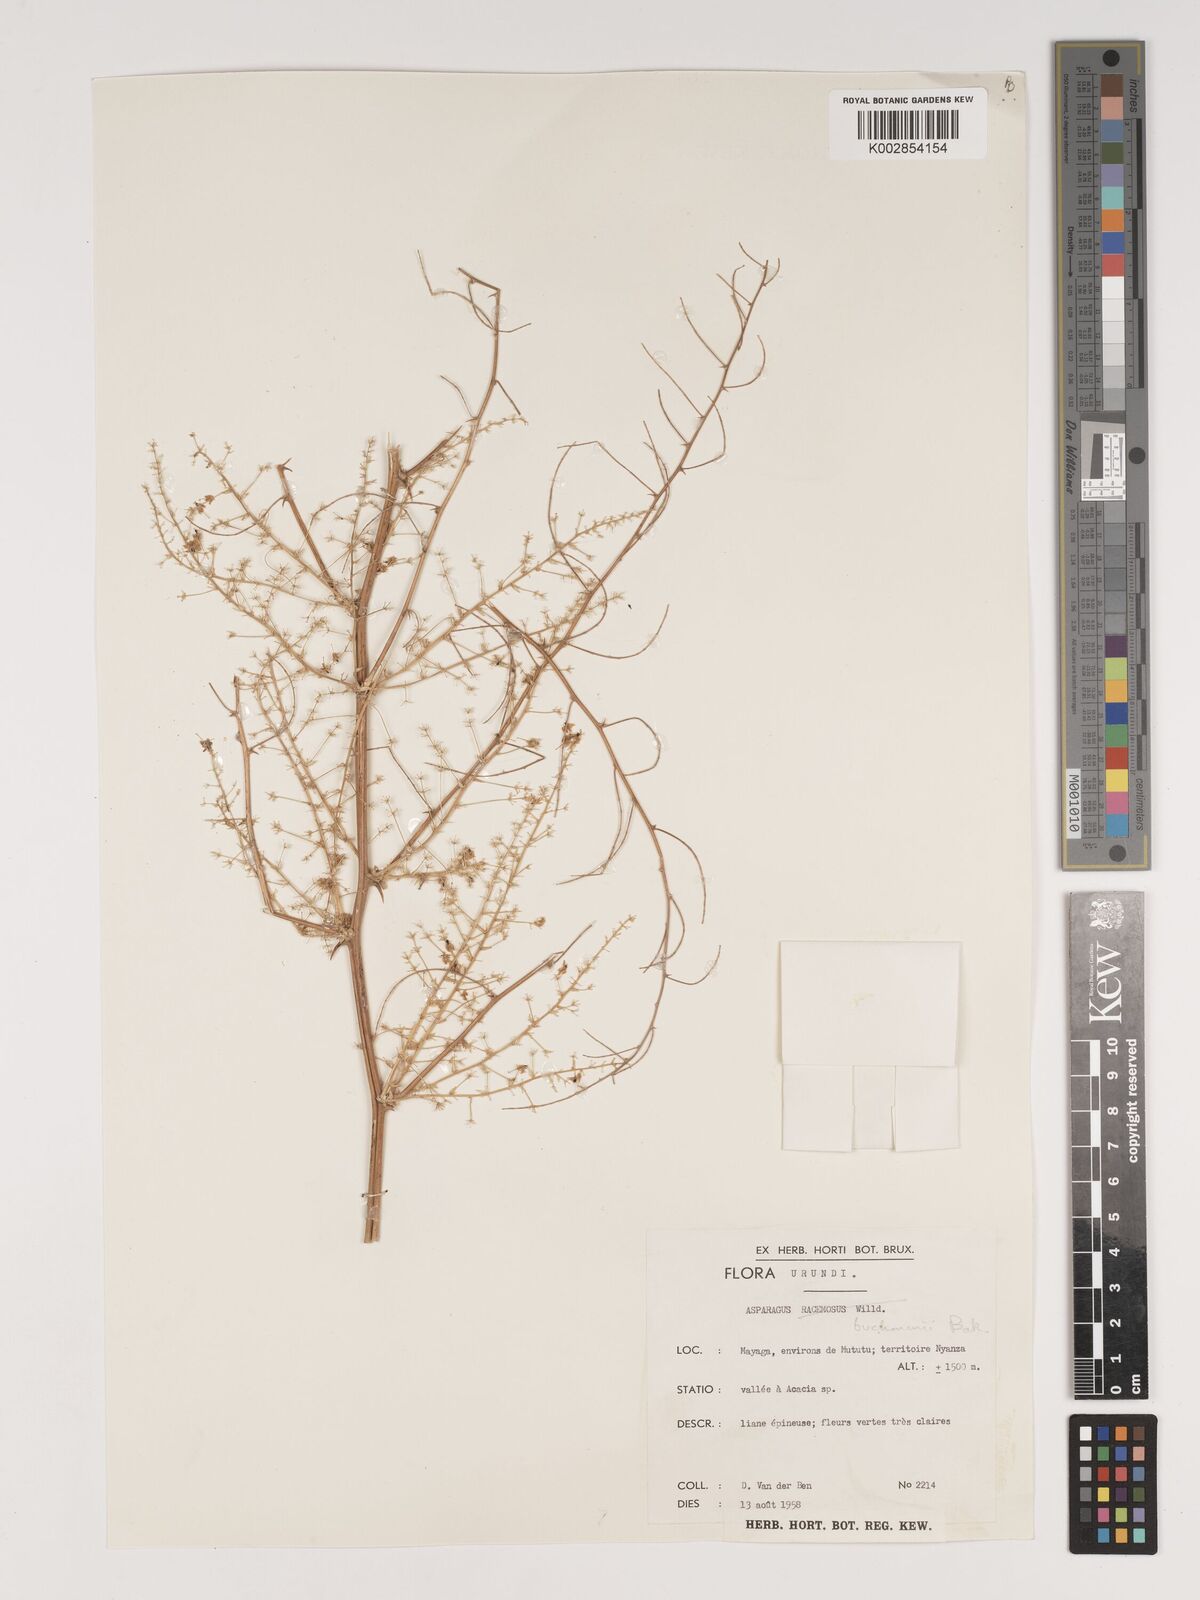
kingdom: Plantae
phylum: Tracheophyta
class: Liliopsida
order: Asparagales
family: Asparagaceae
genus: Asparagus
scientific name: Asparagus buchananii
